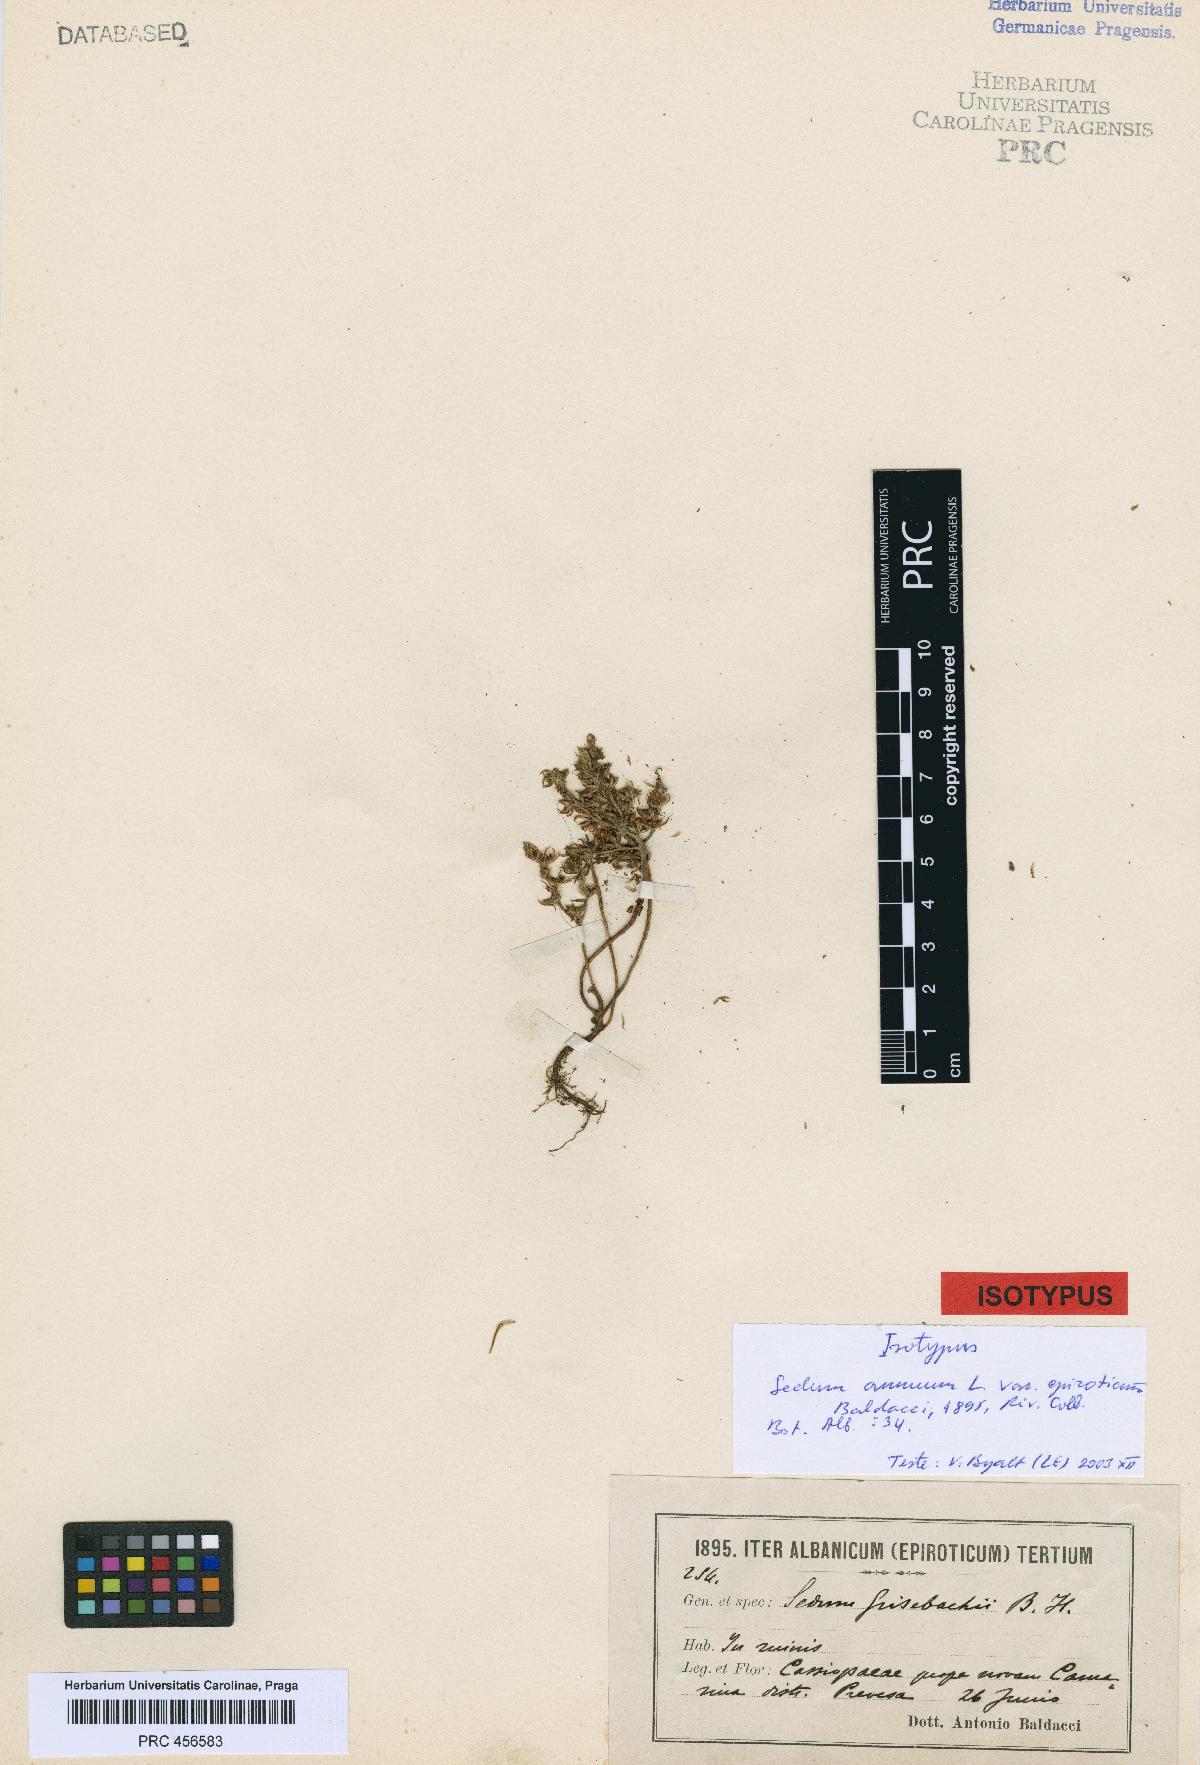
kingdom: Plantae
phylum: Tracheophyta
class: Magnoliopsida
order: Saxifragales
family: Crassulaceae
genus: Sedum
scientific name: Sedum eriocarpum
